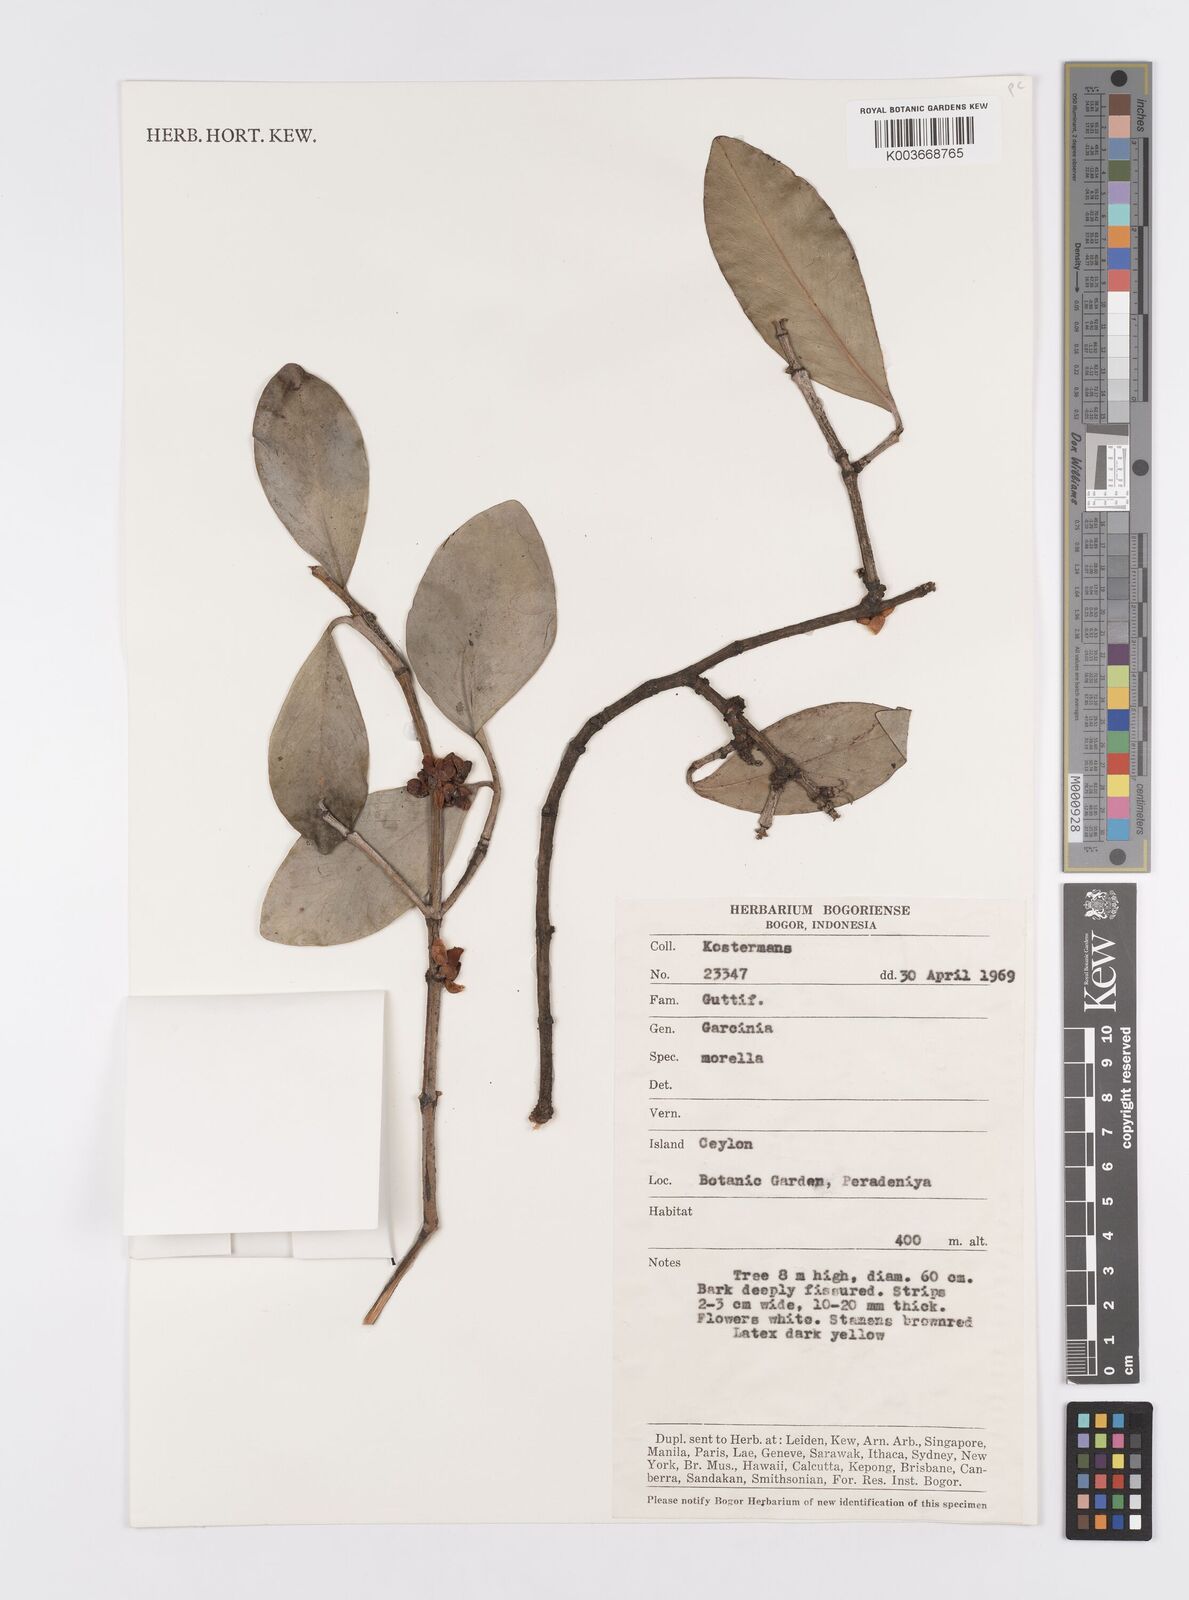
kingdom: Plantae
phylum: Tracheophyta
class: Magnoliopsida
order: Malpighiales
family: Clusiaceae
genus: Garcinia
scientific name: Garcinia morella
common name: Indian gamboge-tree
